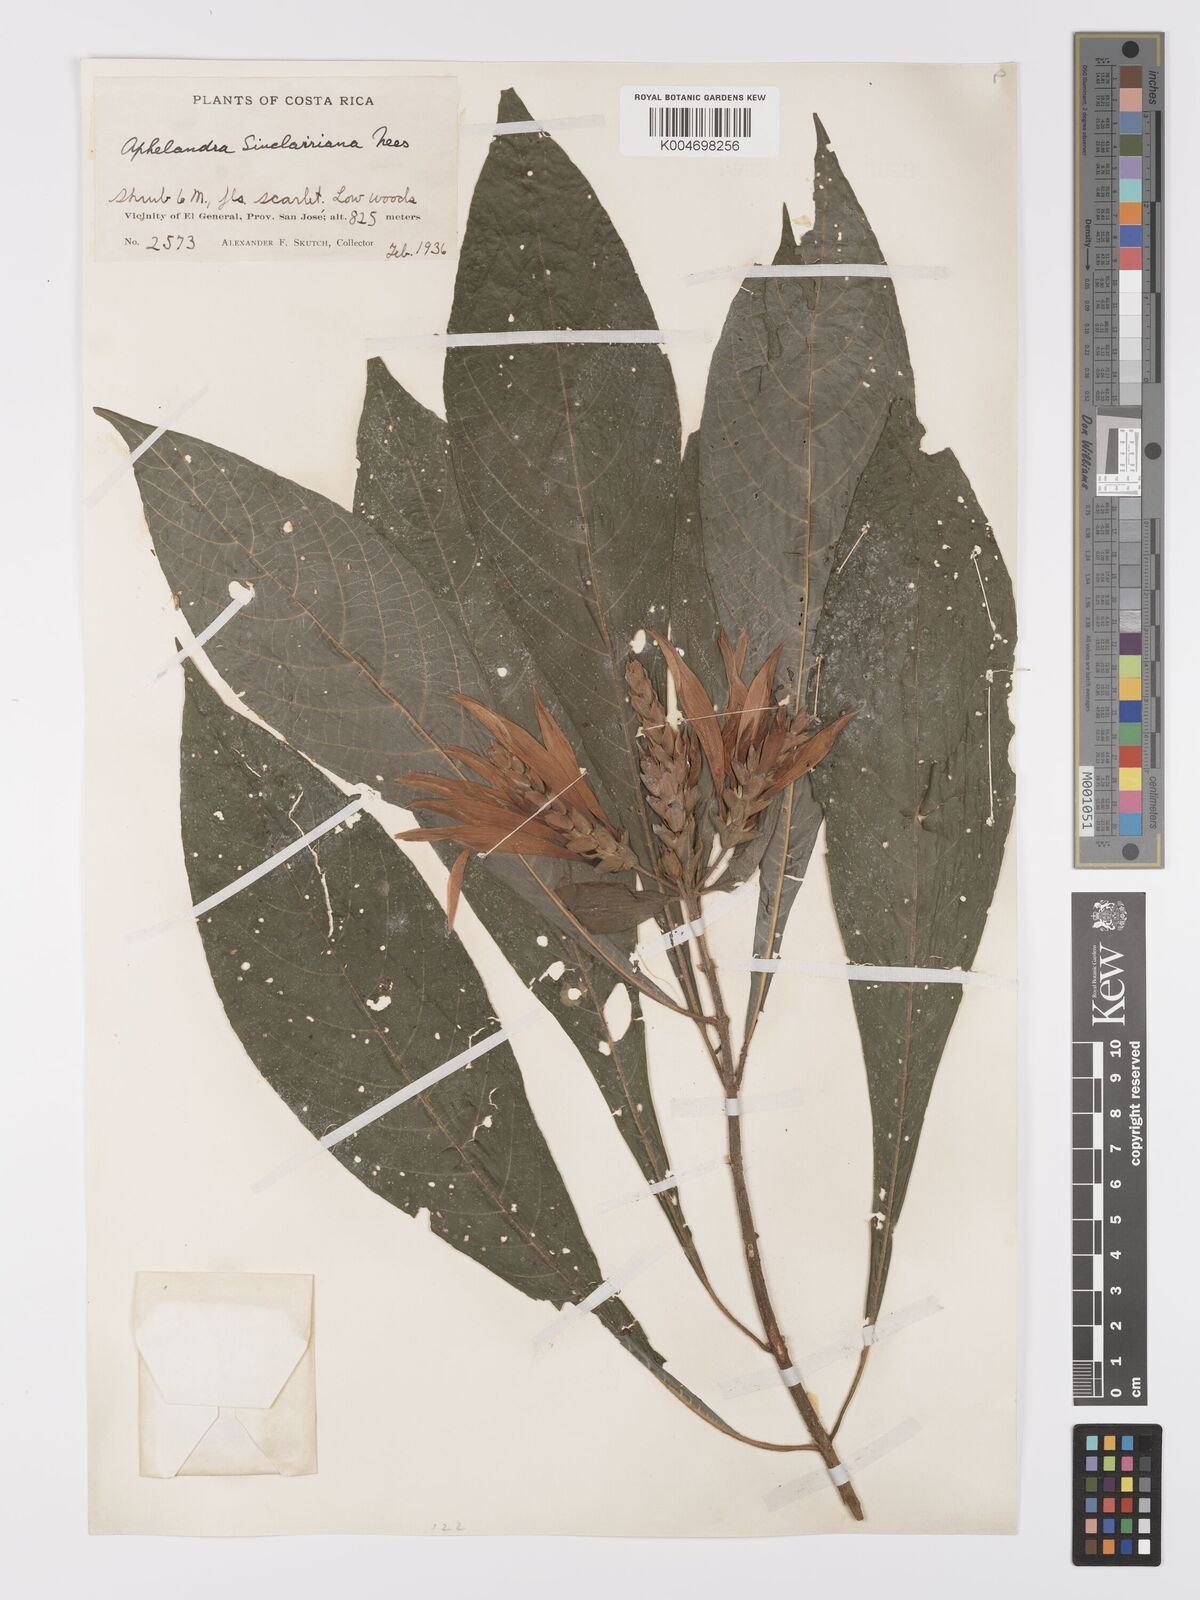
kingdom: Plantae
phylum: Tracheophyta
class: Magnoliopsida
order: Lamiales
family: Acanthaceae
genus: Aphelandra
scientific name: Aphelandra sinclairiana
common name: Coral aphelandra
